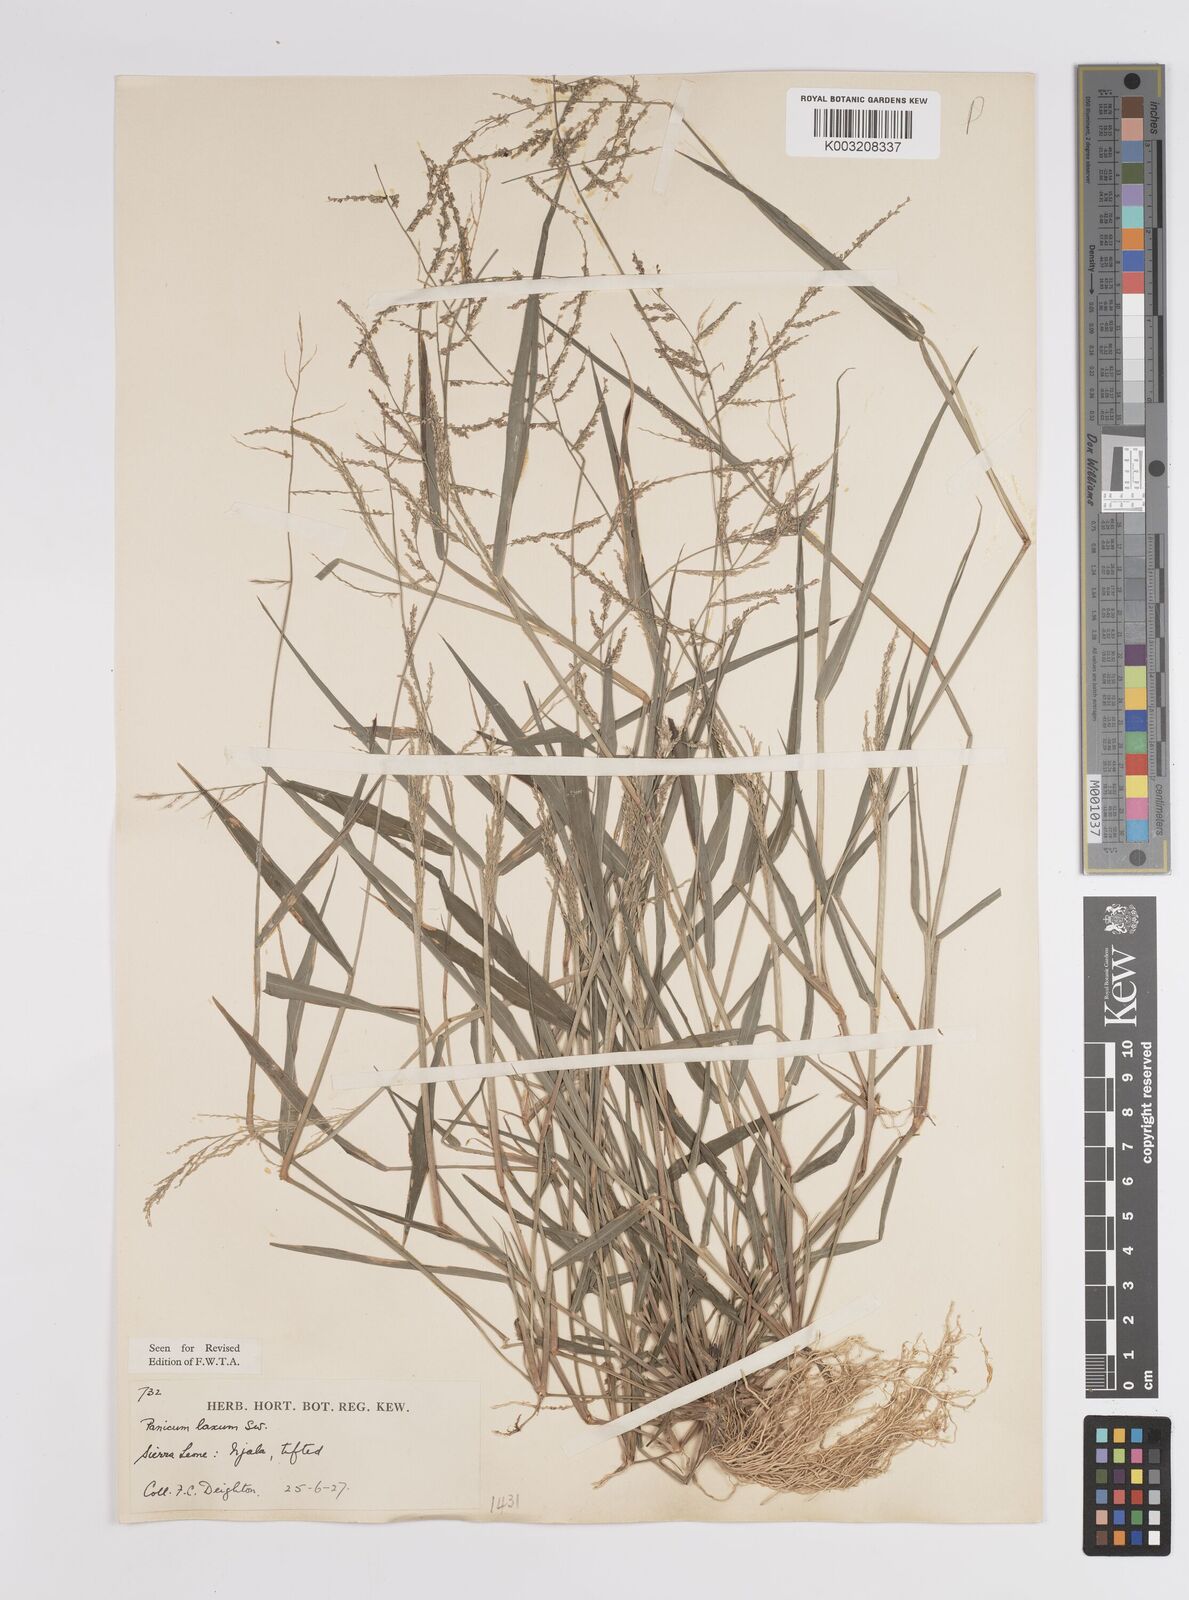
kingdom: Plantae
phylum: Tracheophyta
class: Liliopsida
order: Poales
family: Poaceae
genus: Steinchisma
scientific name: Steinchisma laxum
